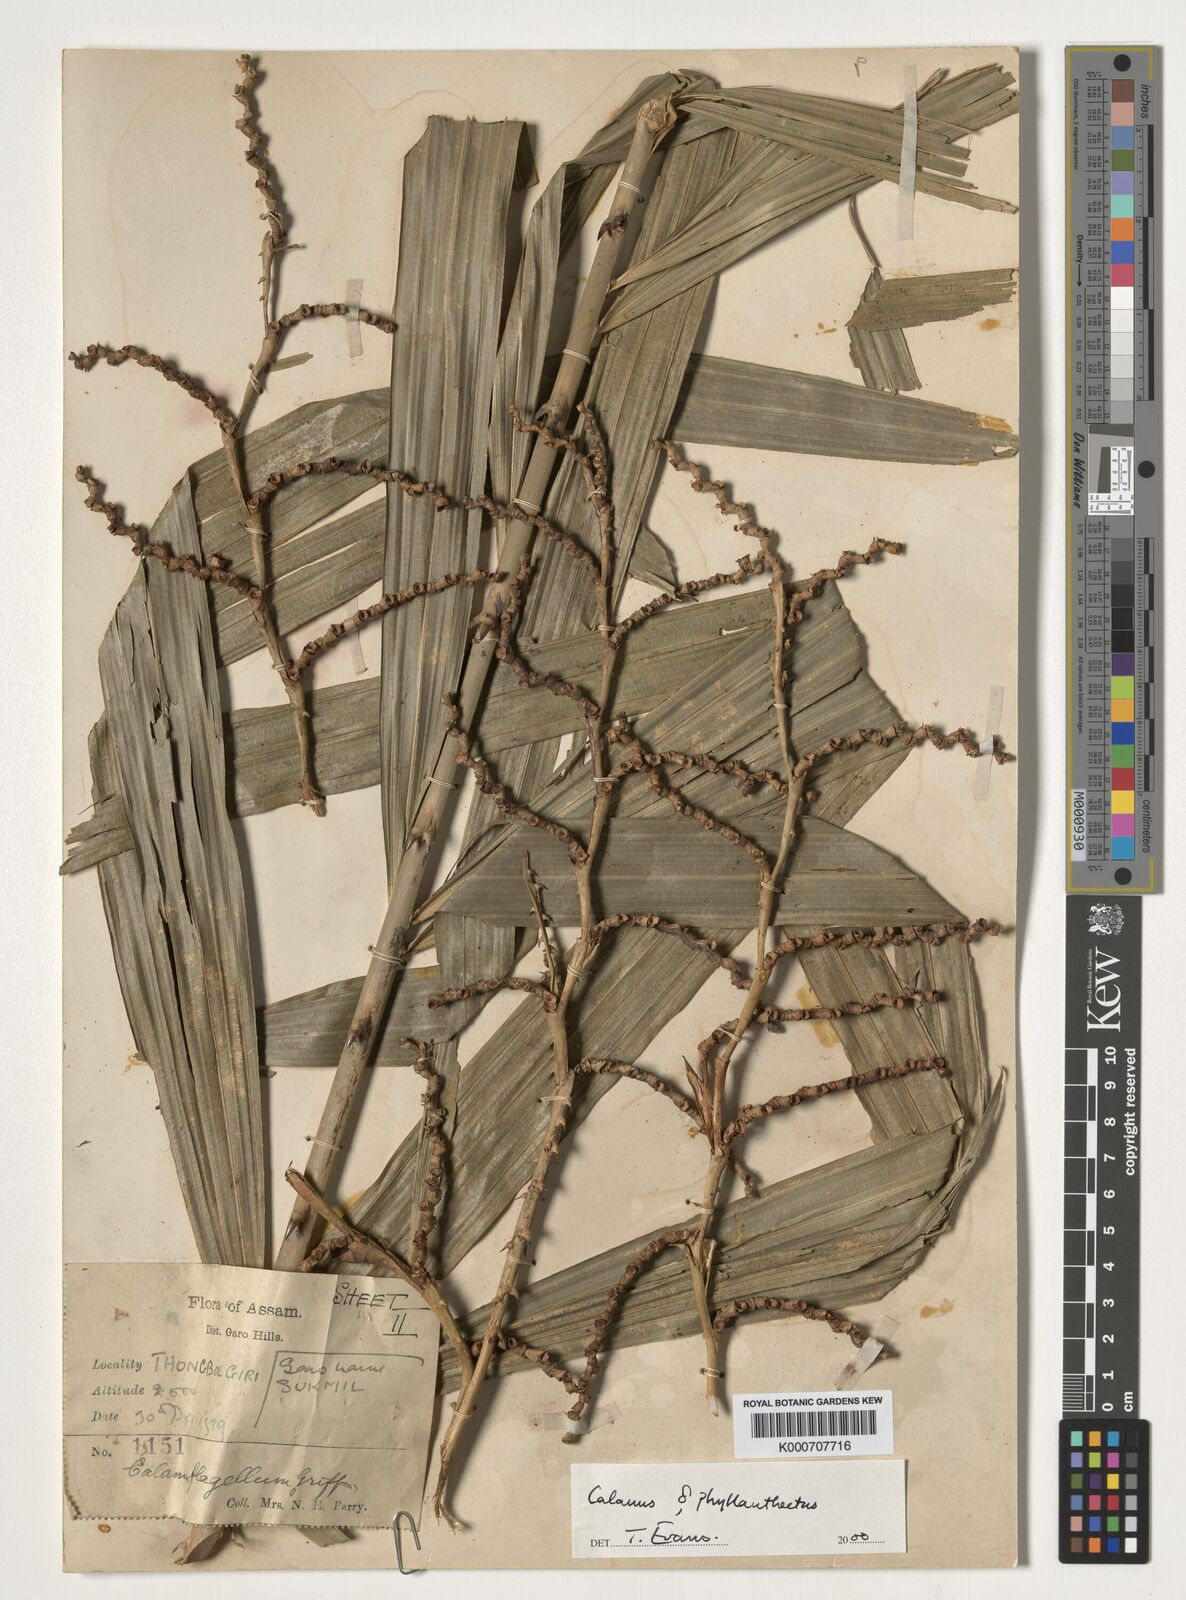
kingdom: Plantae
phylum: Tracheophyta
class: Liliopsida
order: Arecales
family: Arecaceae
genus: Calamus
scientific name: Calamus
